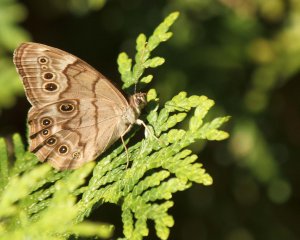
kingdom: Animalia
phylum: Arthropoda
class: Insecta
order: Lepidoptera
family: Nymphalidae
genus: Lethe
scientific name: Lethe anthedon
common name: Northern Pearly-Eye
